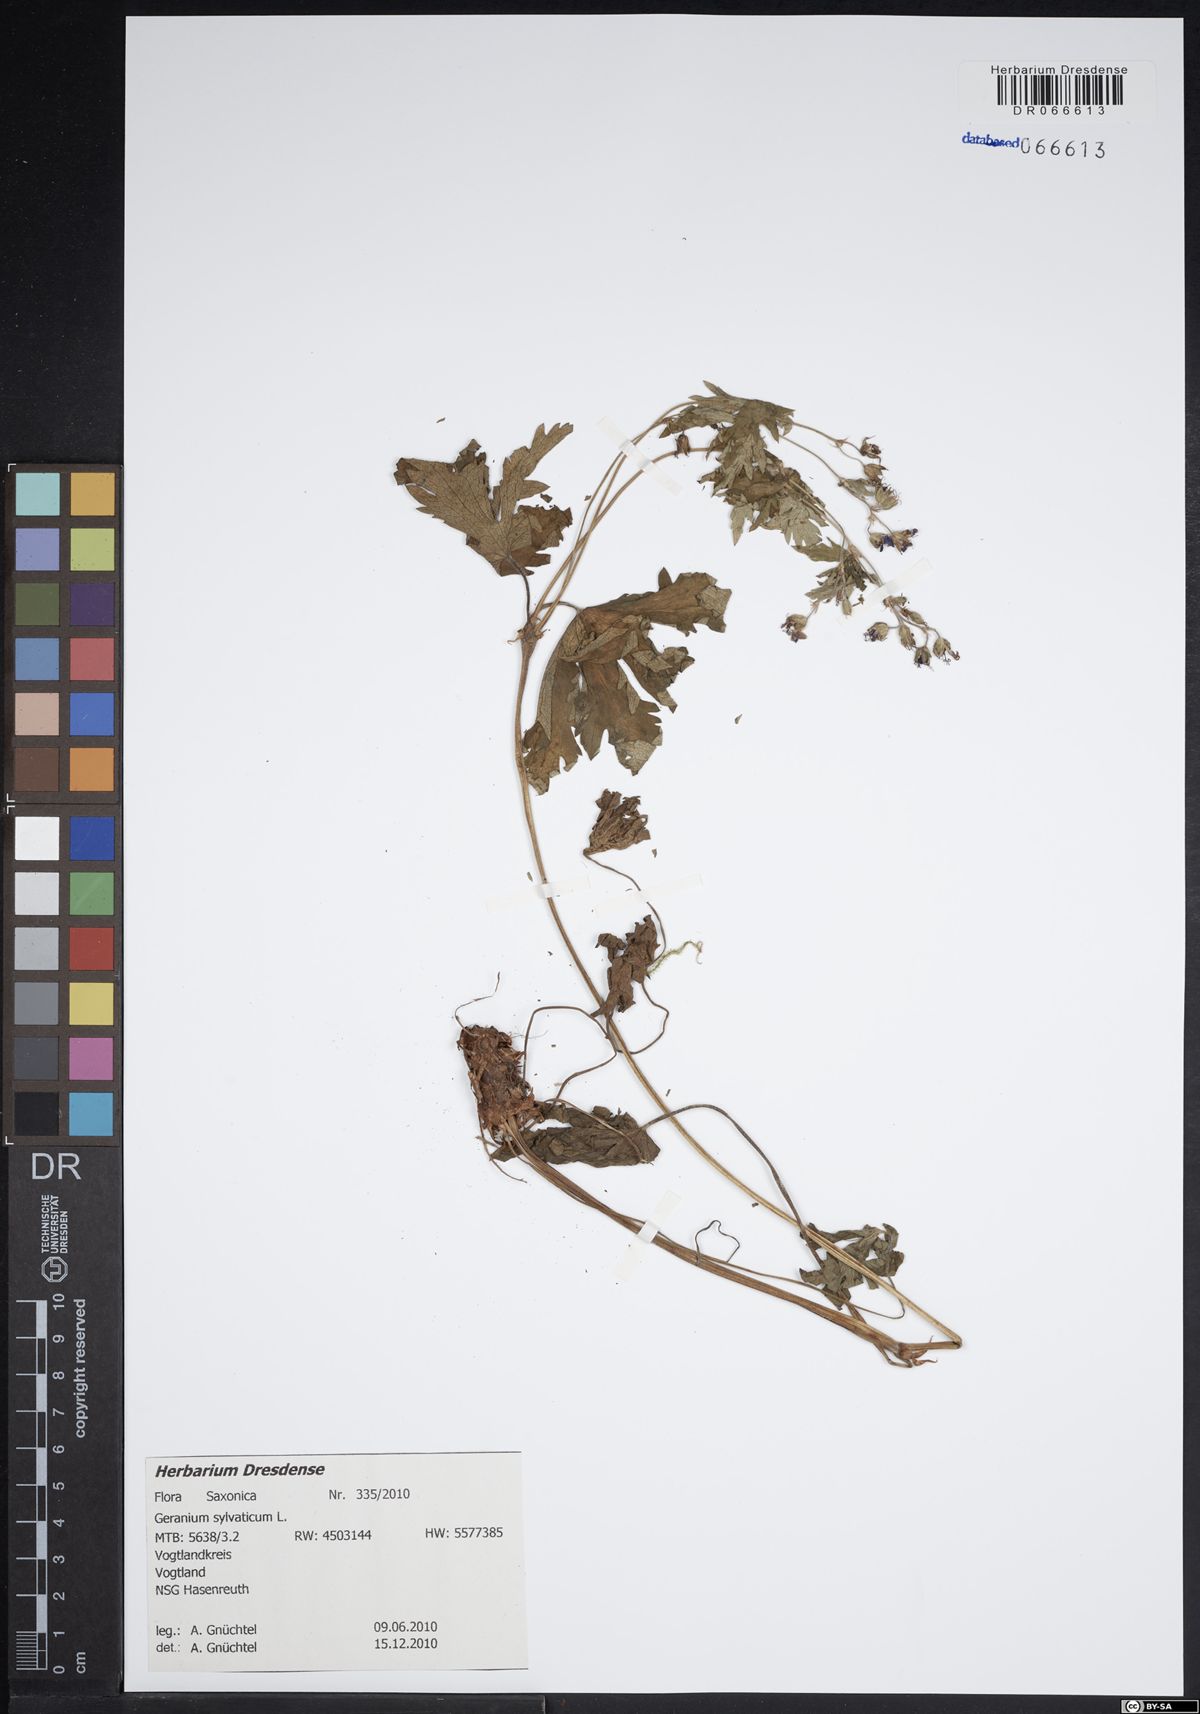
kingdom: Plantae
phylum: Tracheophyta
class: Magnoliopsida
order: Geraniales
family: Geraniaceae
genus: Geranium
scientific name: Geranium sylvaticum
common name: Wood crane's-bill
